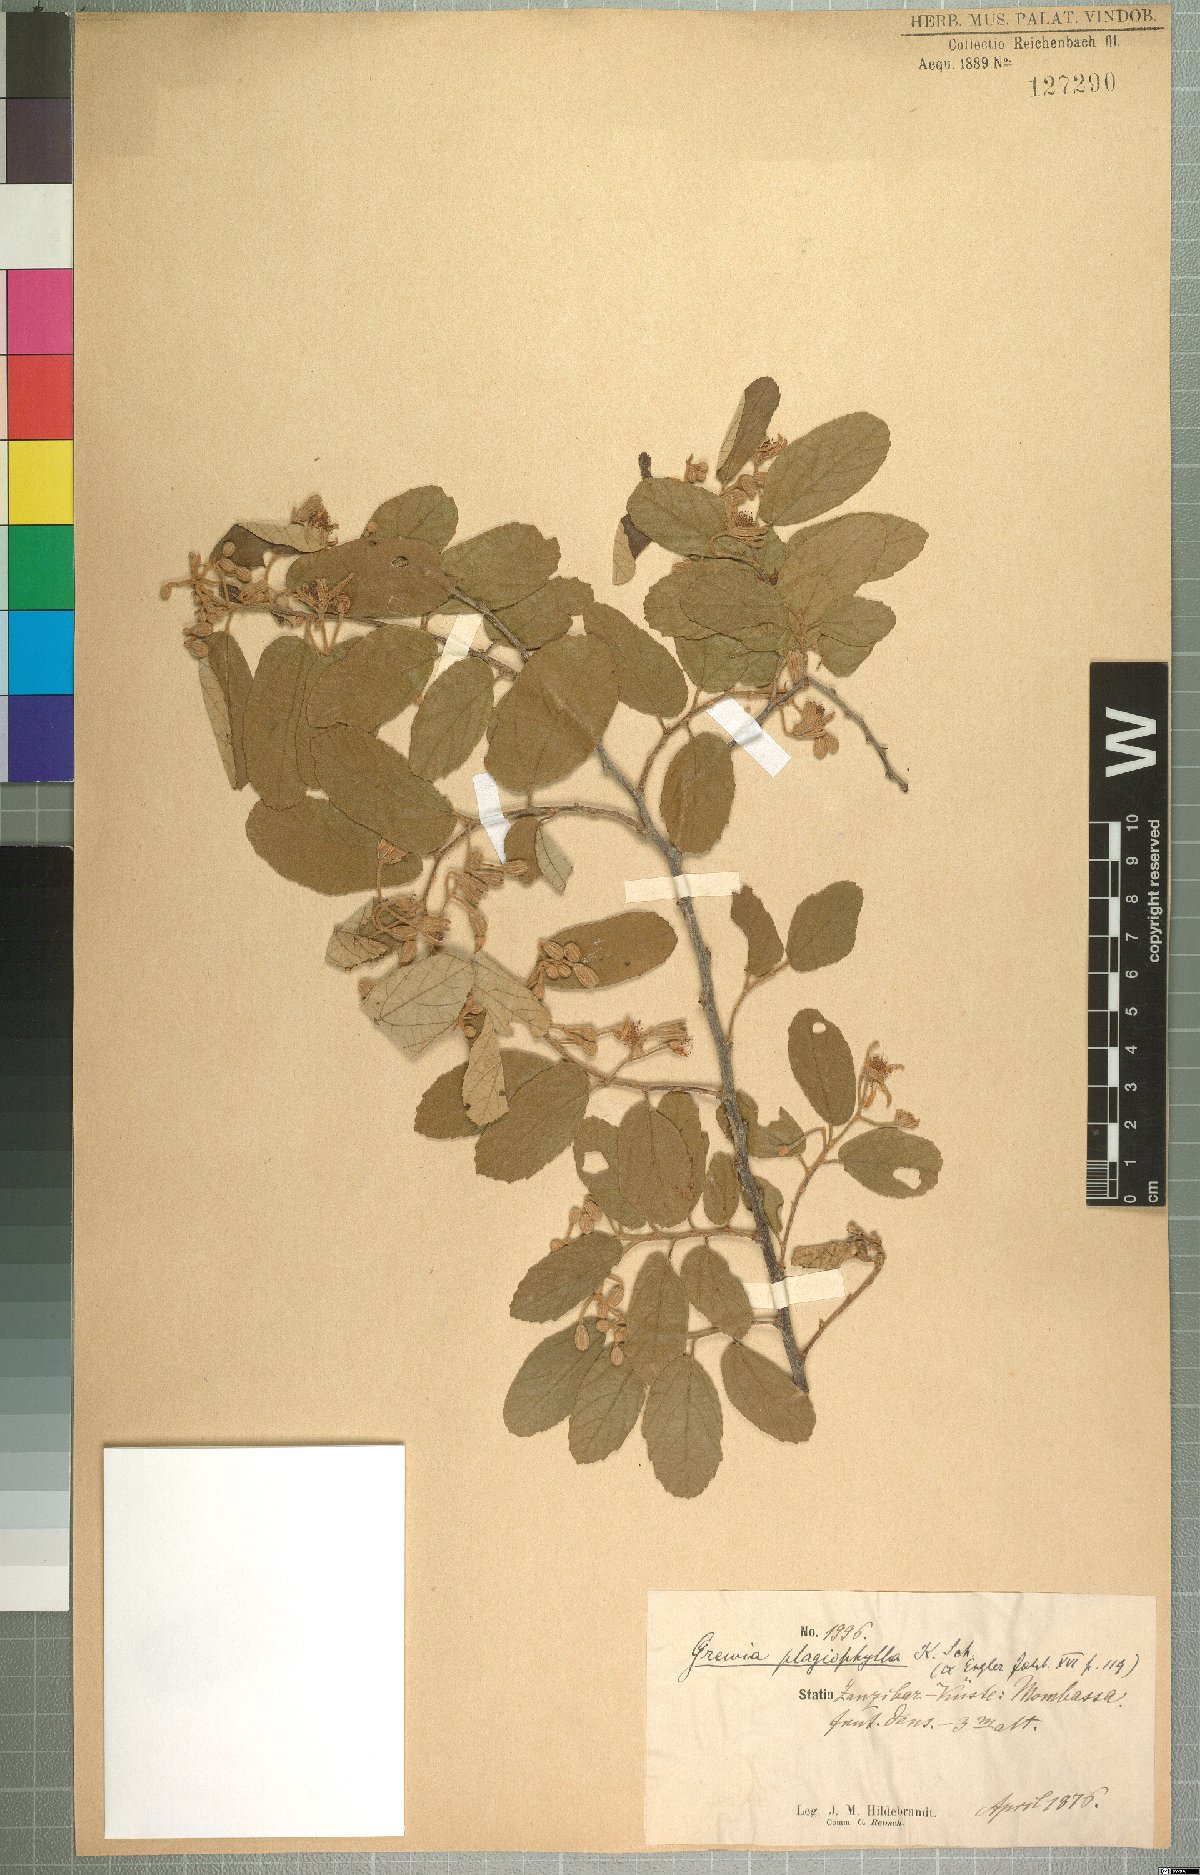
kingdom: Plantae
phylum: Tracheophyta
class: Magnoliopsida
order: Malvales
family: Malvaceae
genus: Grewia
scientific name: Grewia plagiophylla
